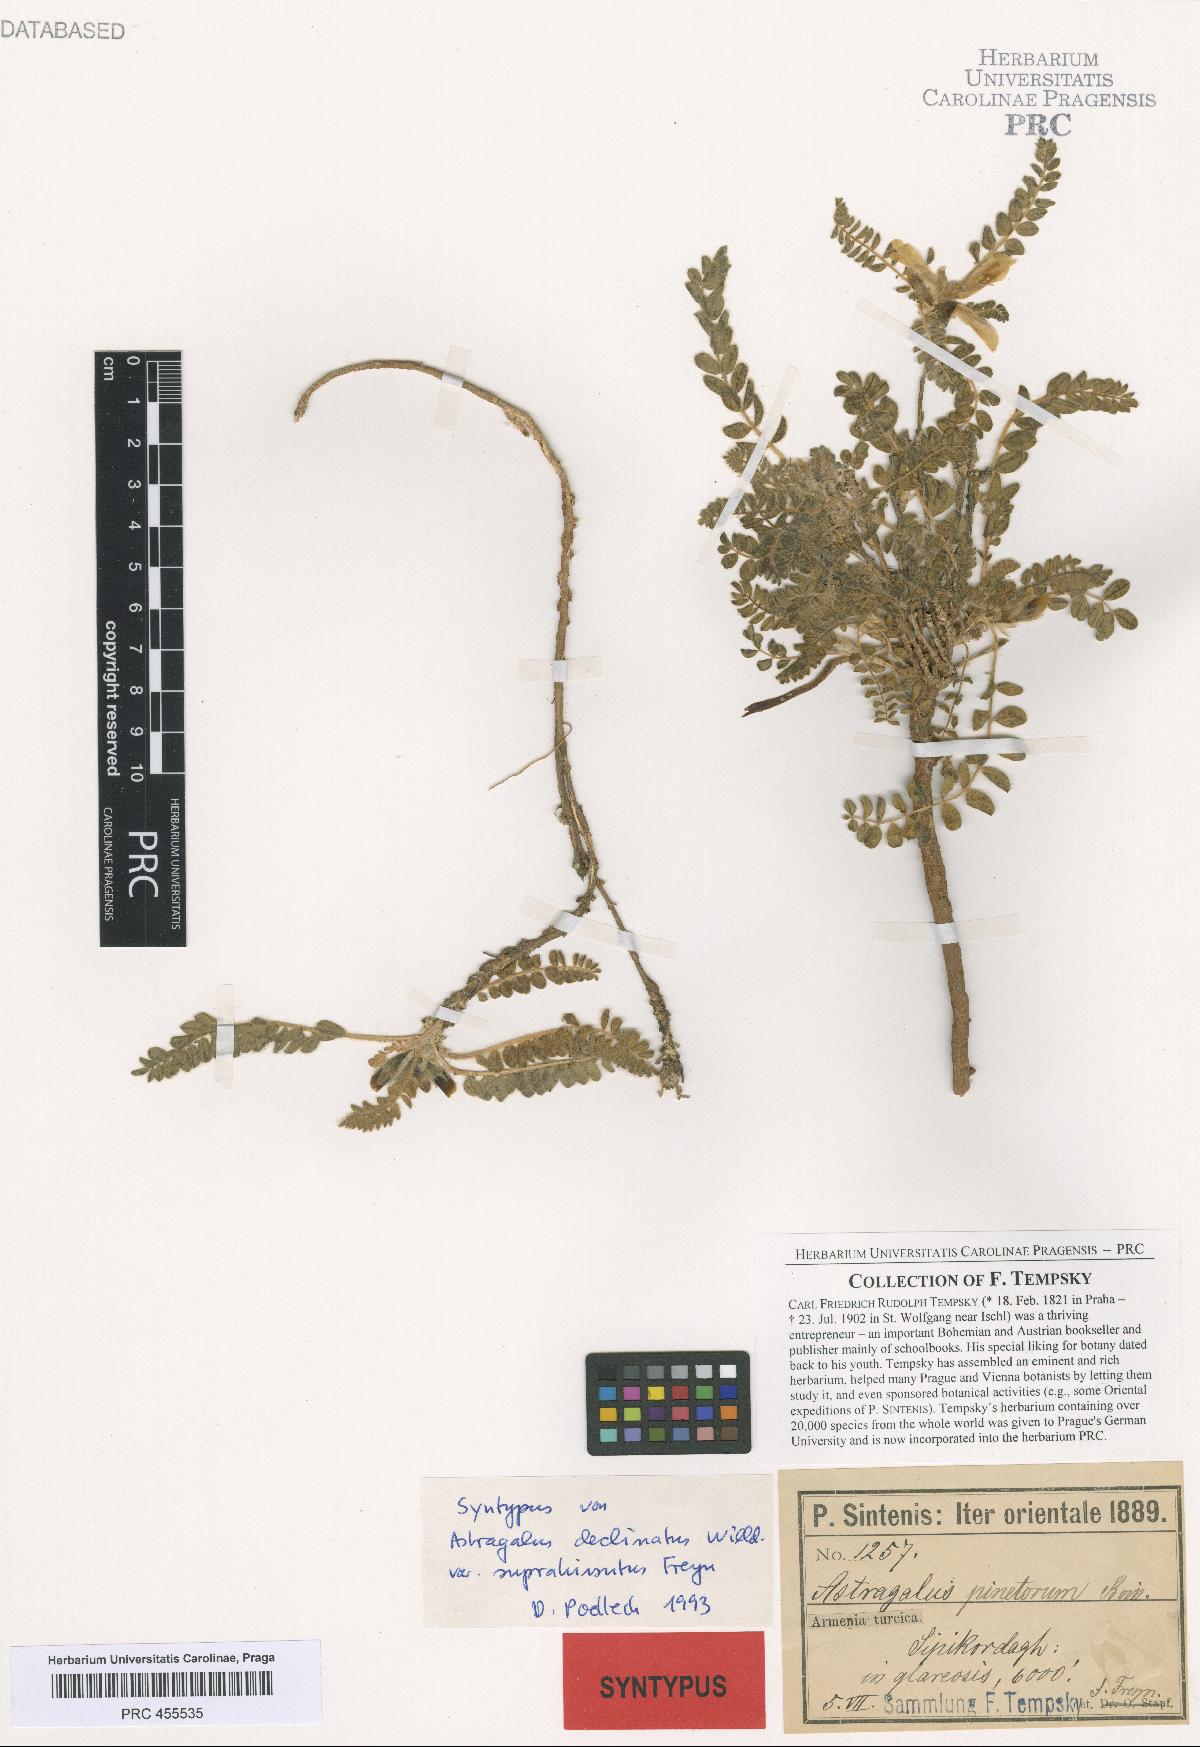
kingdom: Plantae
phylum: Tracheophyta
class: Magnoliopsida
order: Fabales
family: Fabaceae
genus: Astragalus
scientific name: Astragalus pinetorum
